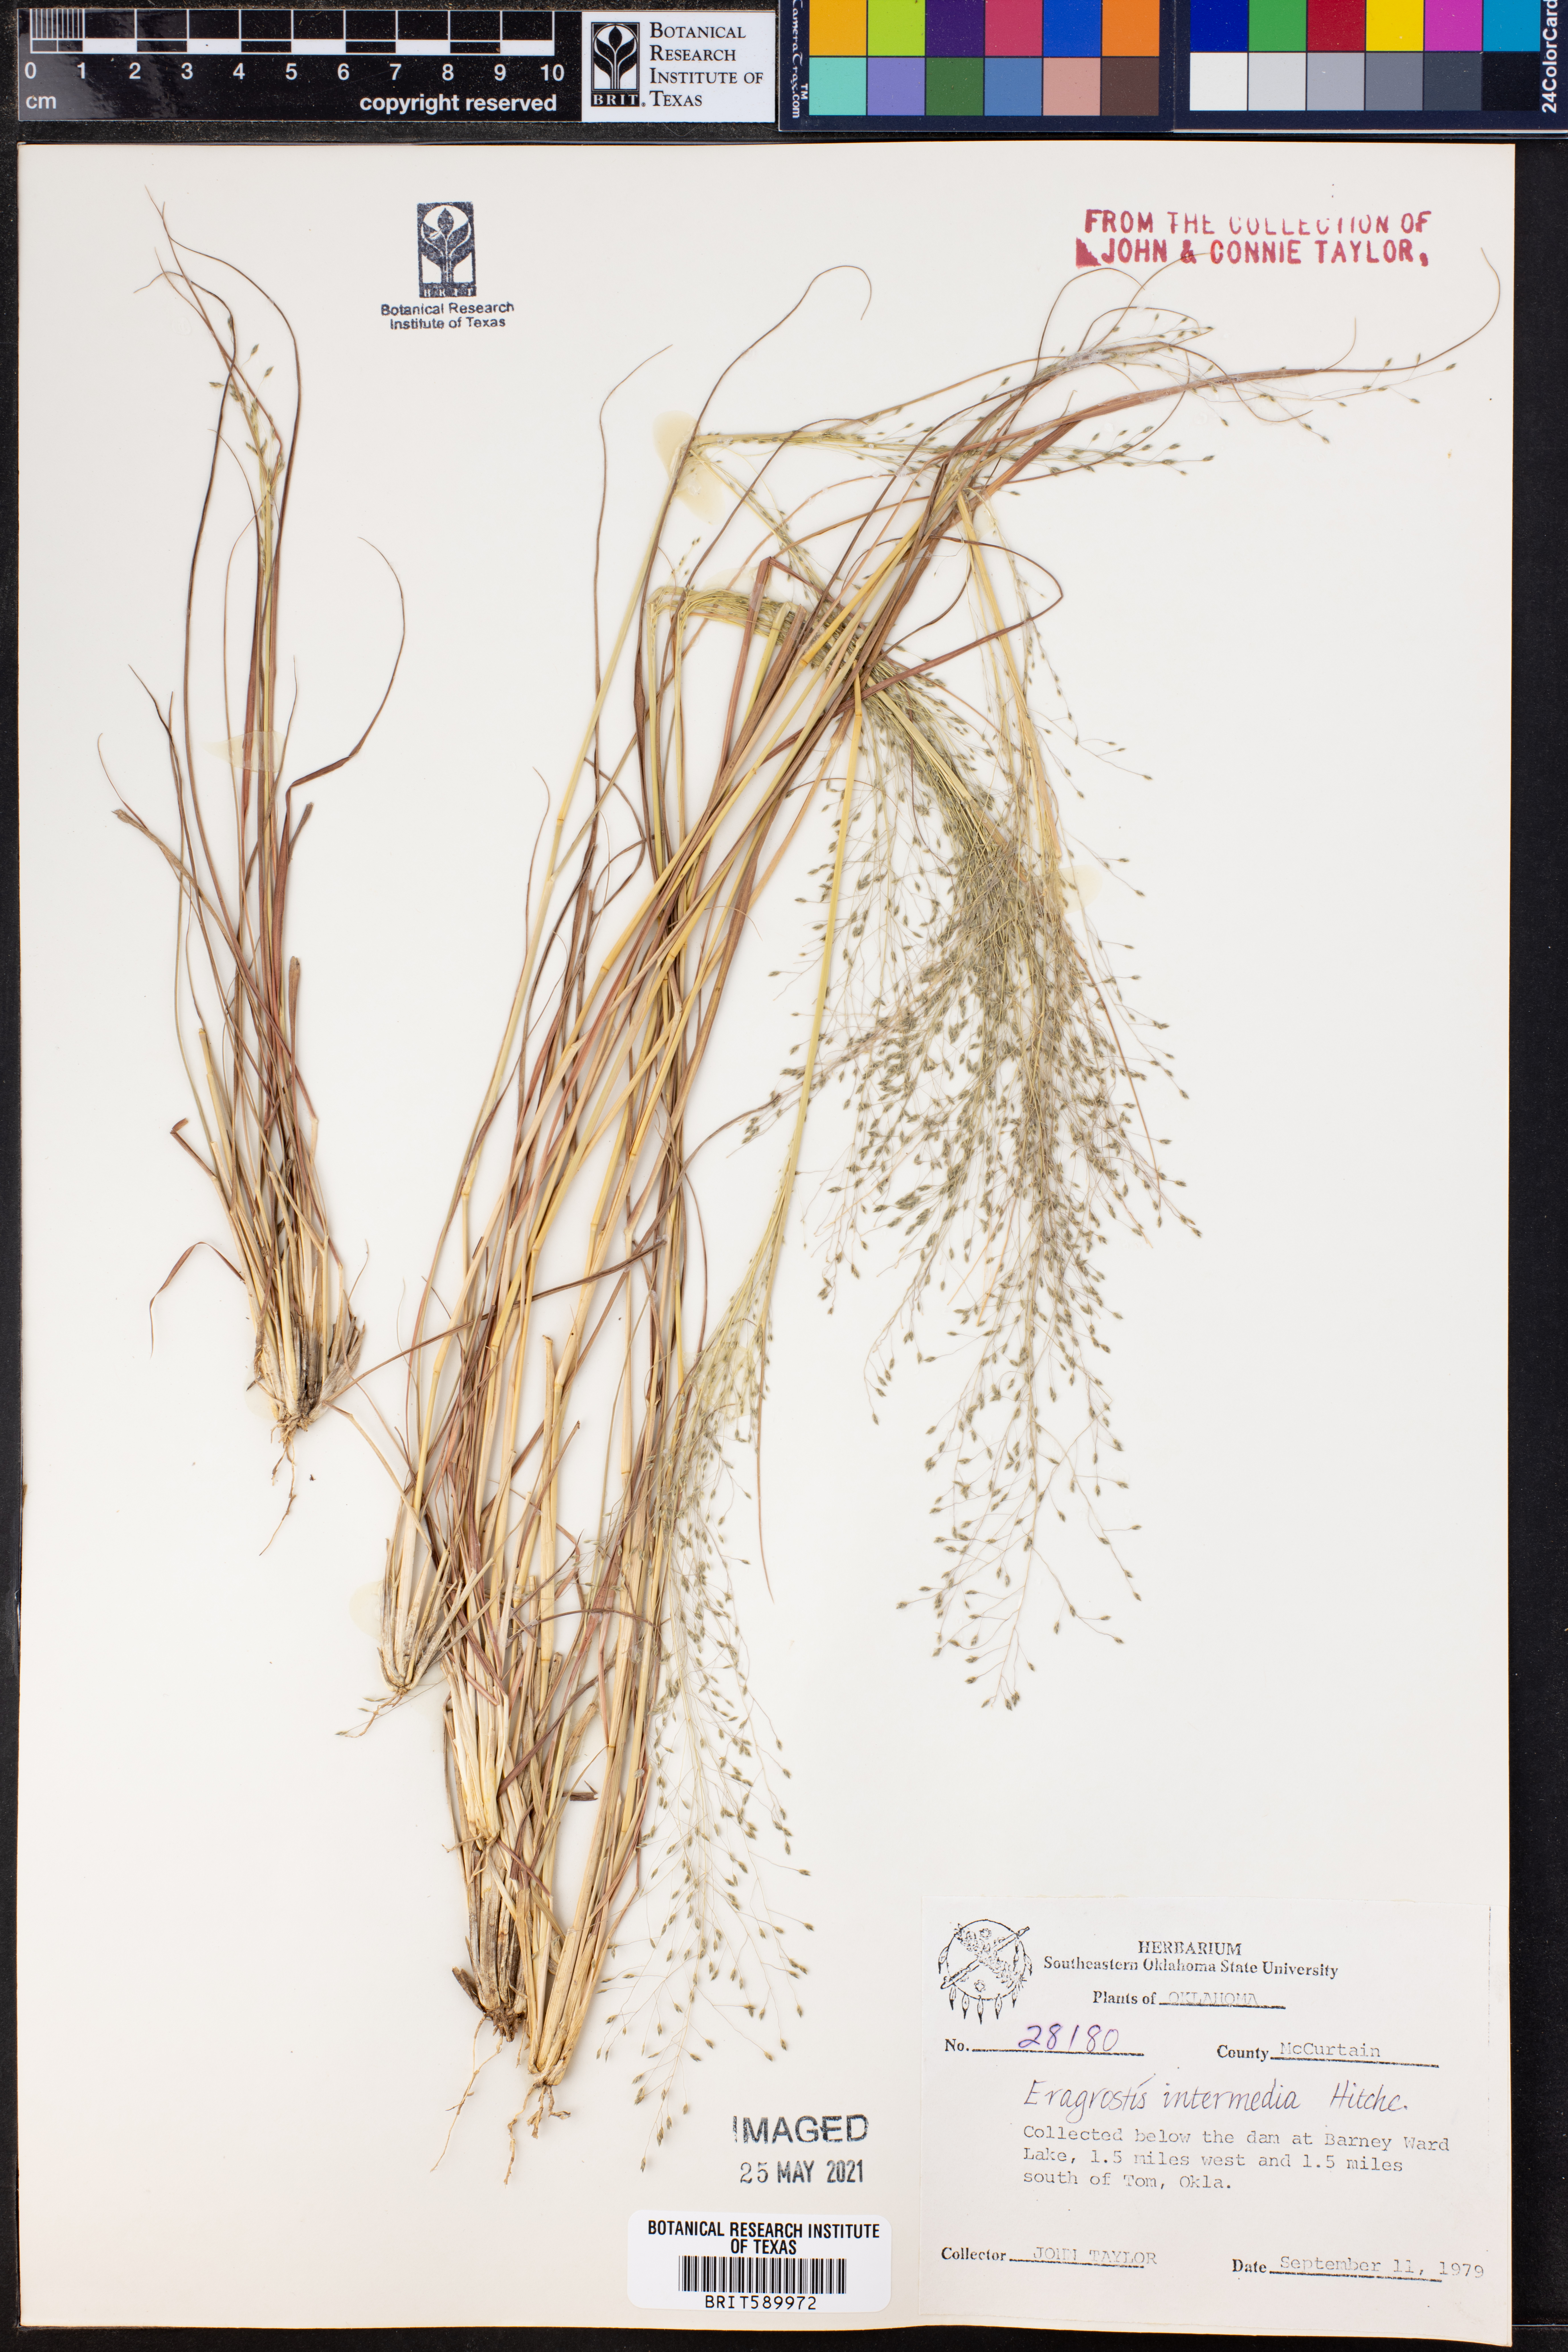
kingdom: Plantae
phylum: Tracheophyta
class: Liliopsida
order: Poales
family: Poaceae
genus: Eragrostis
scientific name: Eragrostis intermedia
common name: Plains love grass
